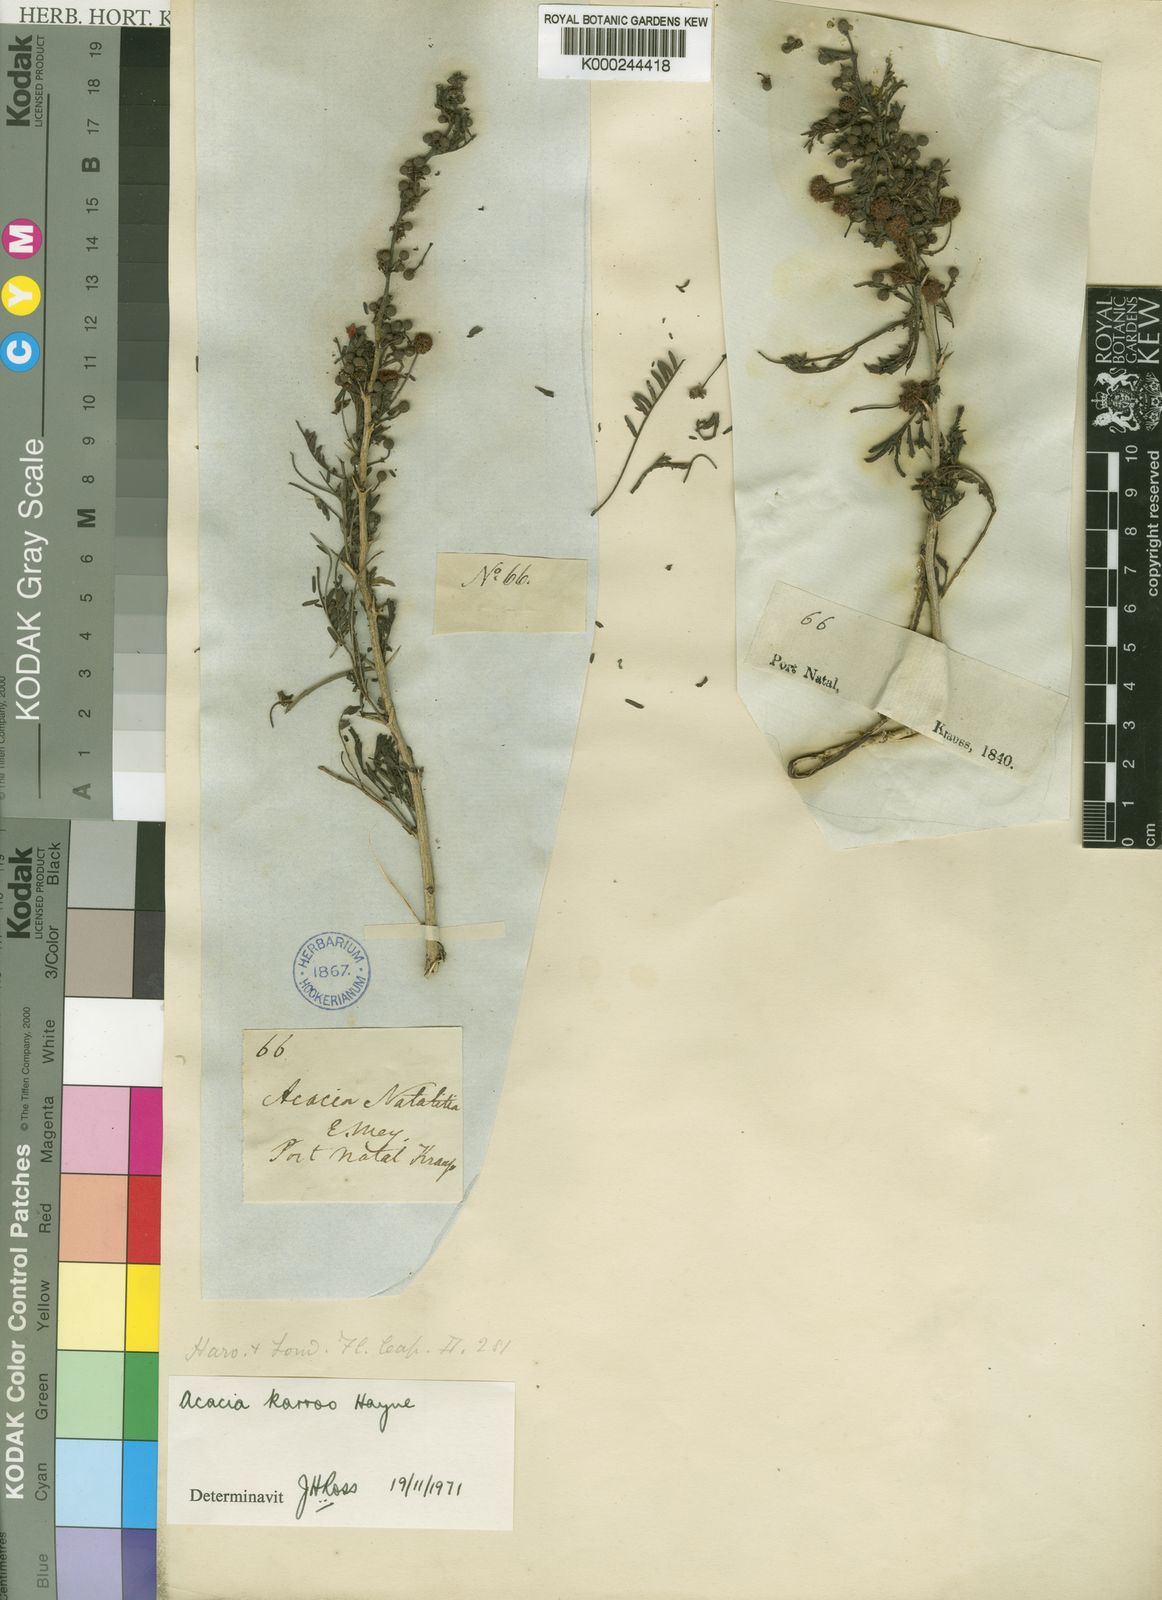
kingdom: Plantae
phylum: Tracheophyta
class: Magnoliopsida
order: Fabales
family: Fabaceae
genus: Vachellia
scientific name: Vachellia karroo
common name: Sweet thorn
